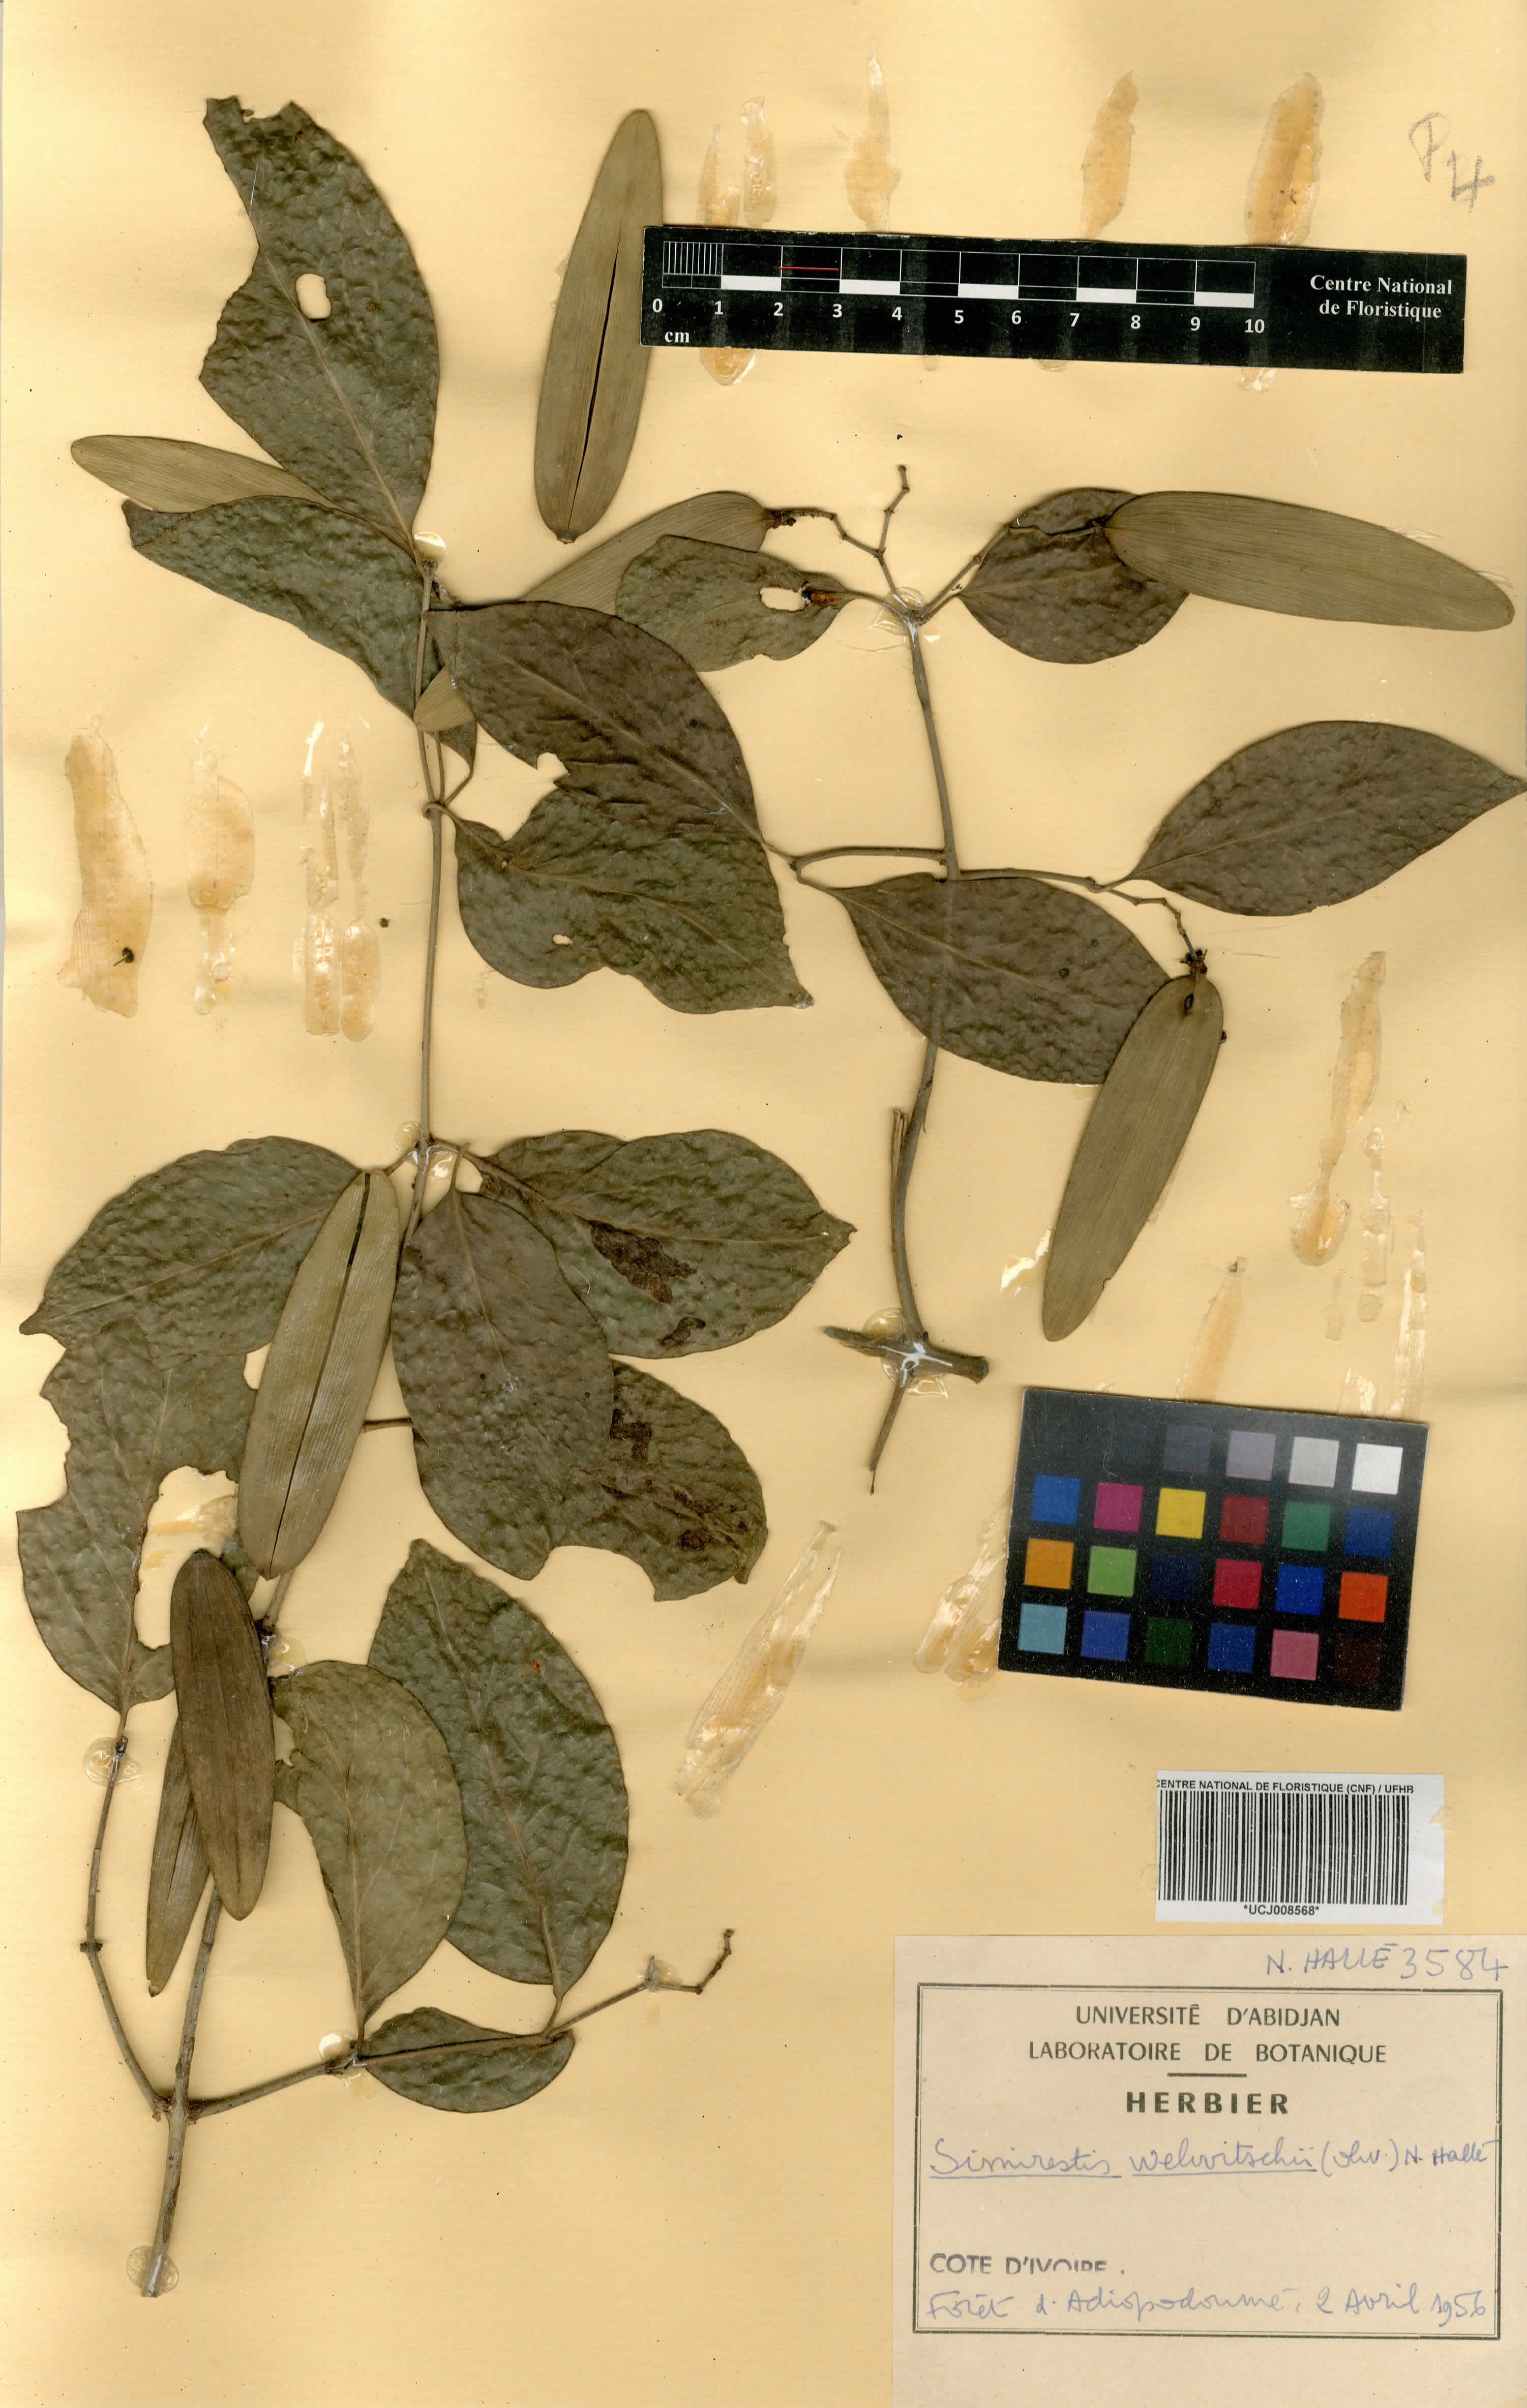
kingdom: Plantae
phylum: Tracheophyta
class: Magnoliopsida
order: Celastrales
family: Celastraceae
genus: Simicratea
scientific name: Simicratea welwitschii
